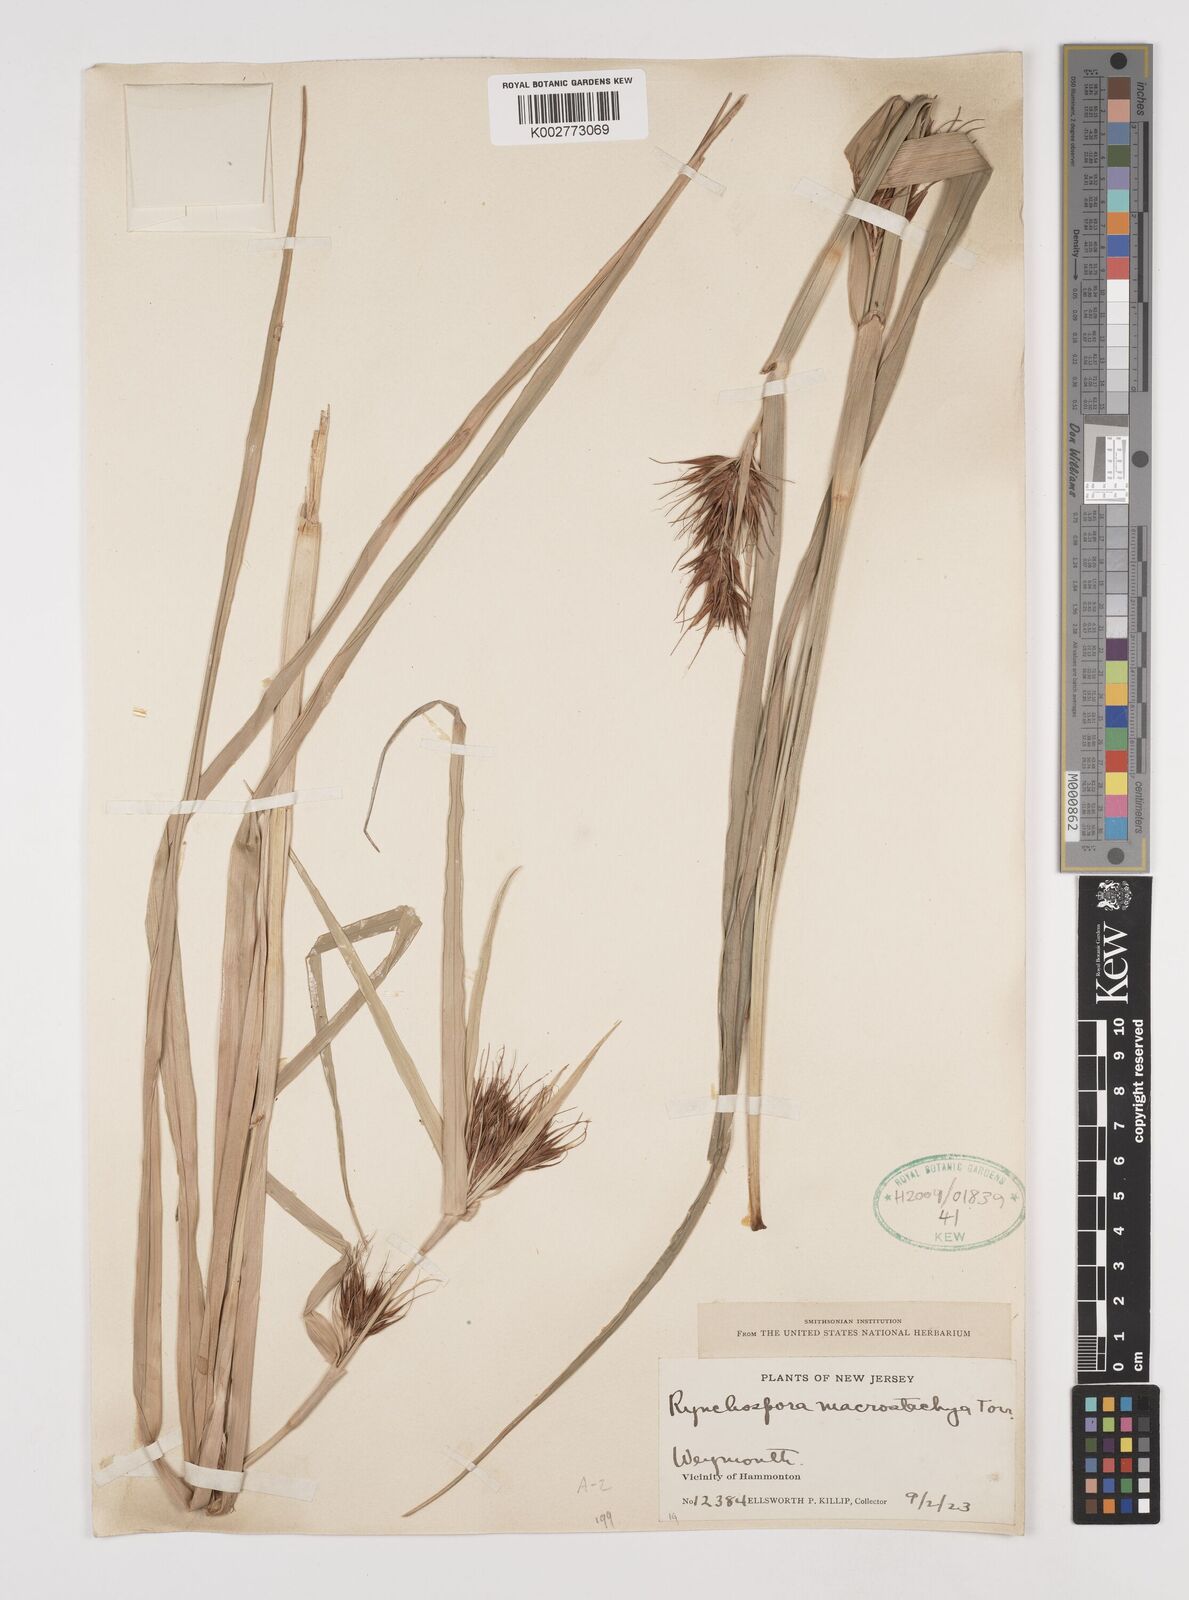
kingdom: Plantae
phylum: Tracheophyta
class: Liliopsida
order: Poales
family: Cyperaceae
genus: Rhynchospora
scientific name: Rhynchospora macrostachya
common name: Tall beakrush
